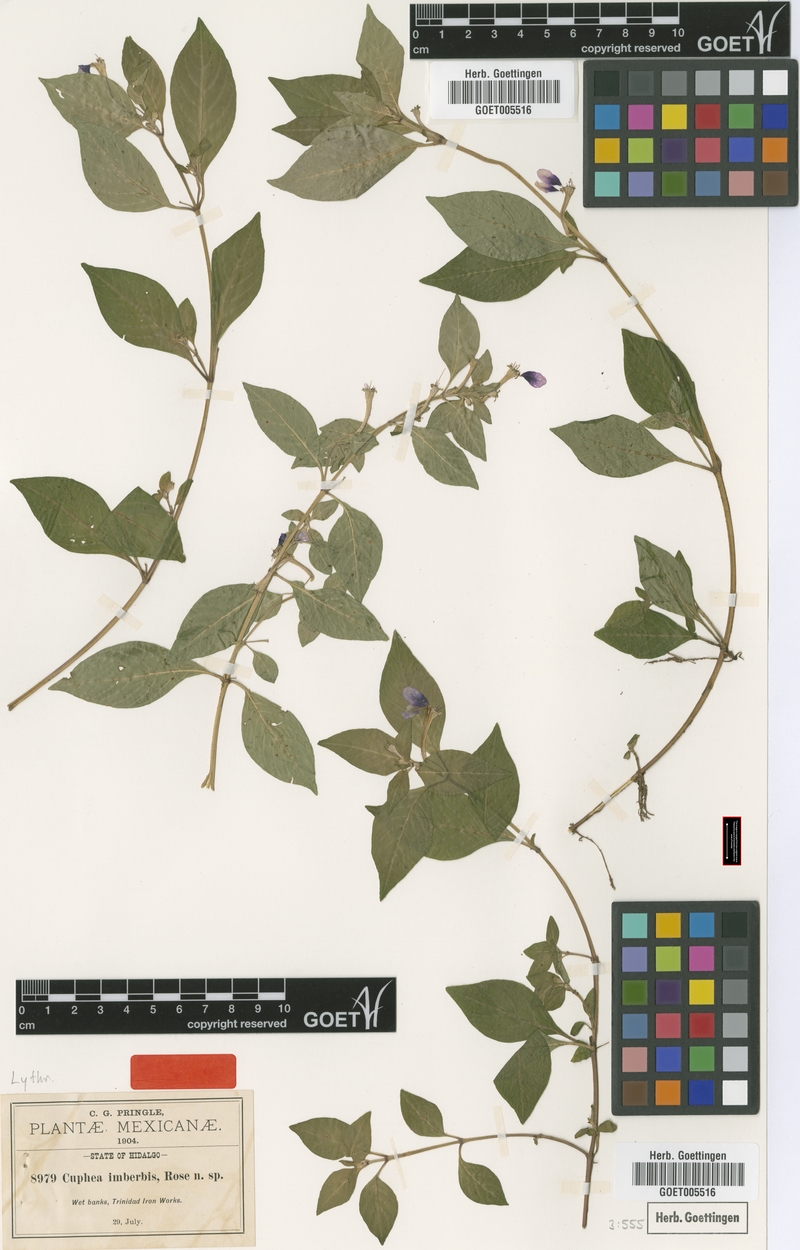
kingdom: Plantae
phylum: Tracheophyta
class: Magnoliopsida
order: Myrtales
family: Lythraceae
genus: Cuphea
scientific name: Cuphea imberbis
